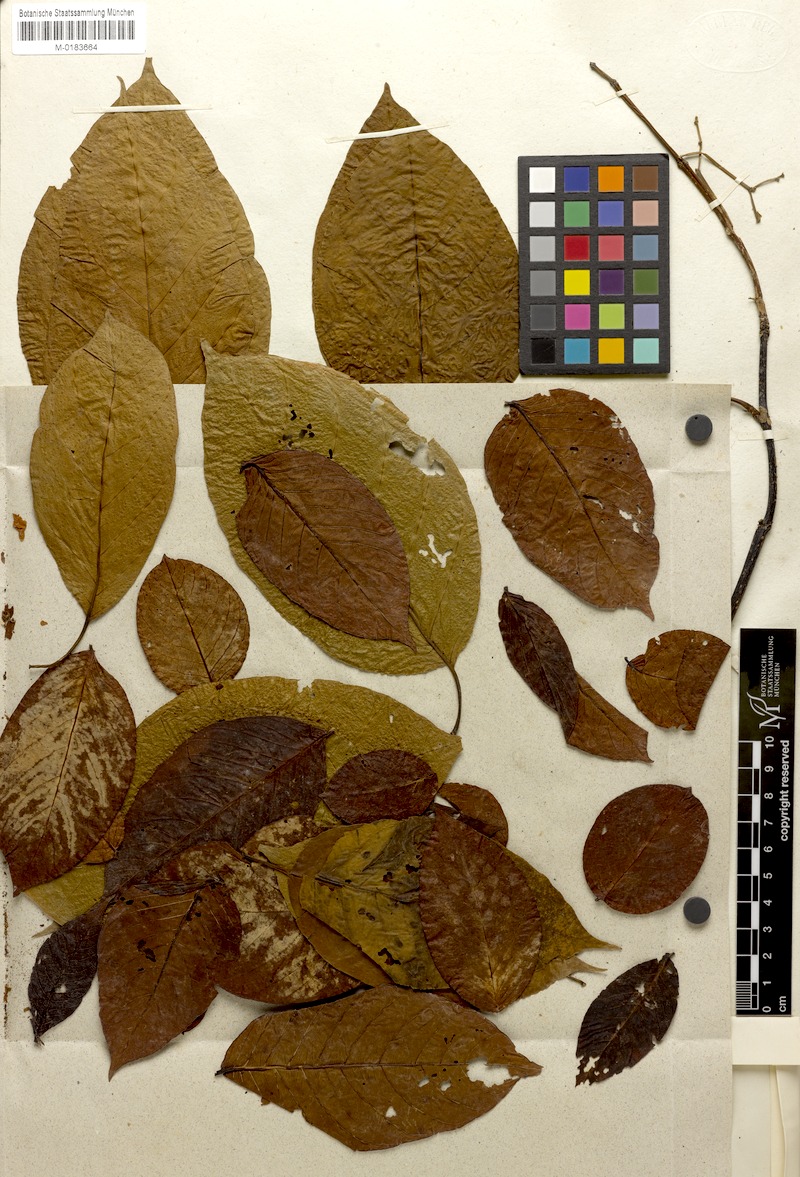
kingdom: Plantae
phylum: Tracheophyta
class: Magnoliopsida
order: Gentianales
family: Apocynaceae
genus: Chonemorpha
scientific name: Chonemorpha verrucosa
